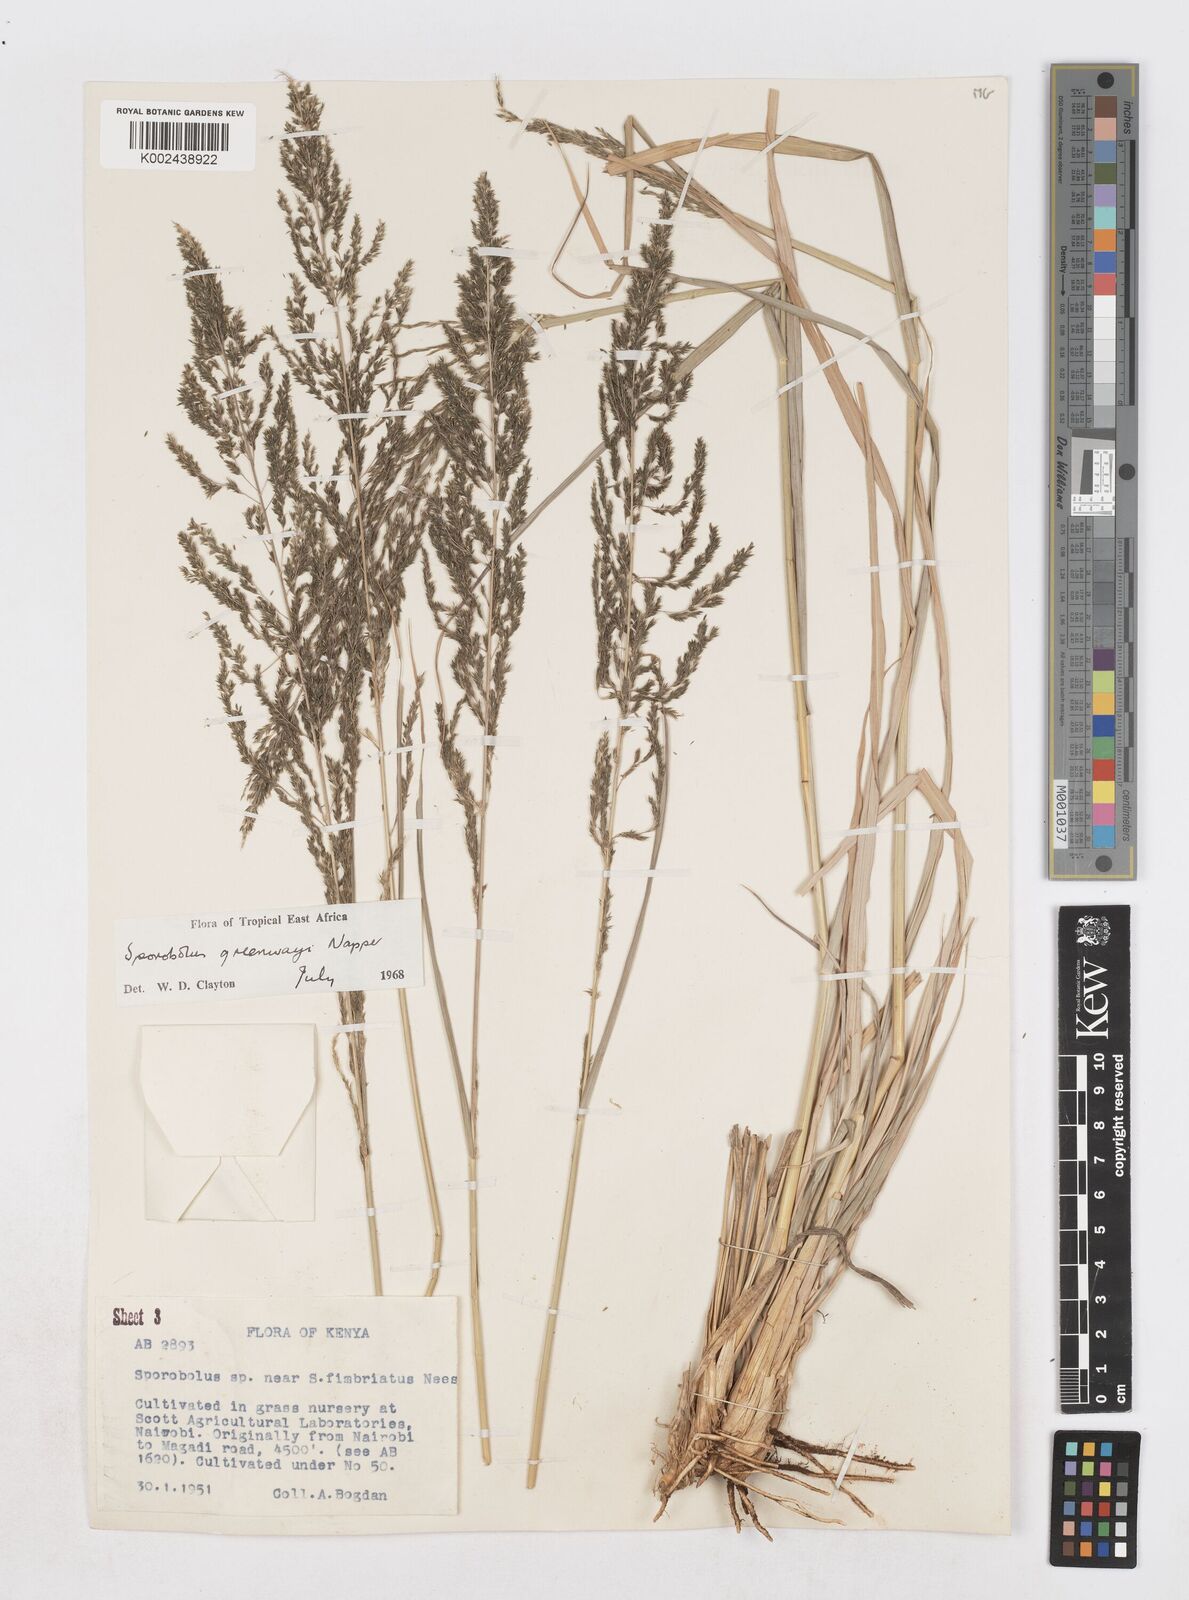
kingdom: Plantae
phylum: Tracheophyta
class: Liliopsida
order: Poales
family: Poaceae
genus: Sporobolus
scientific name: Sporobolus macranthelus
